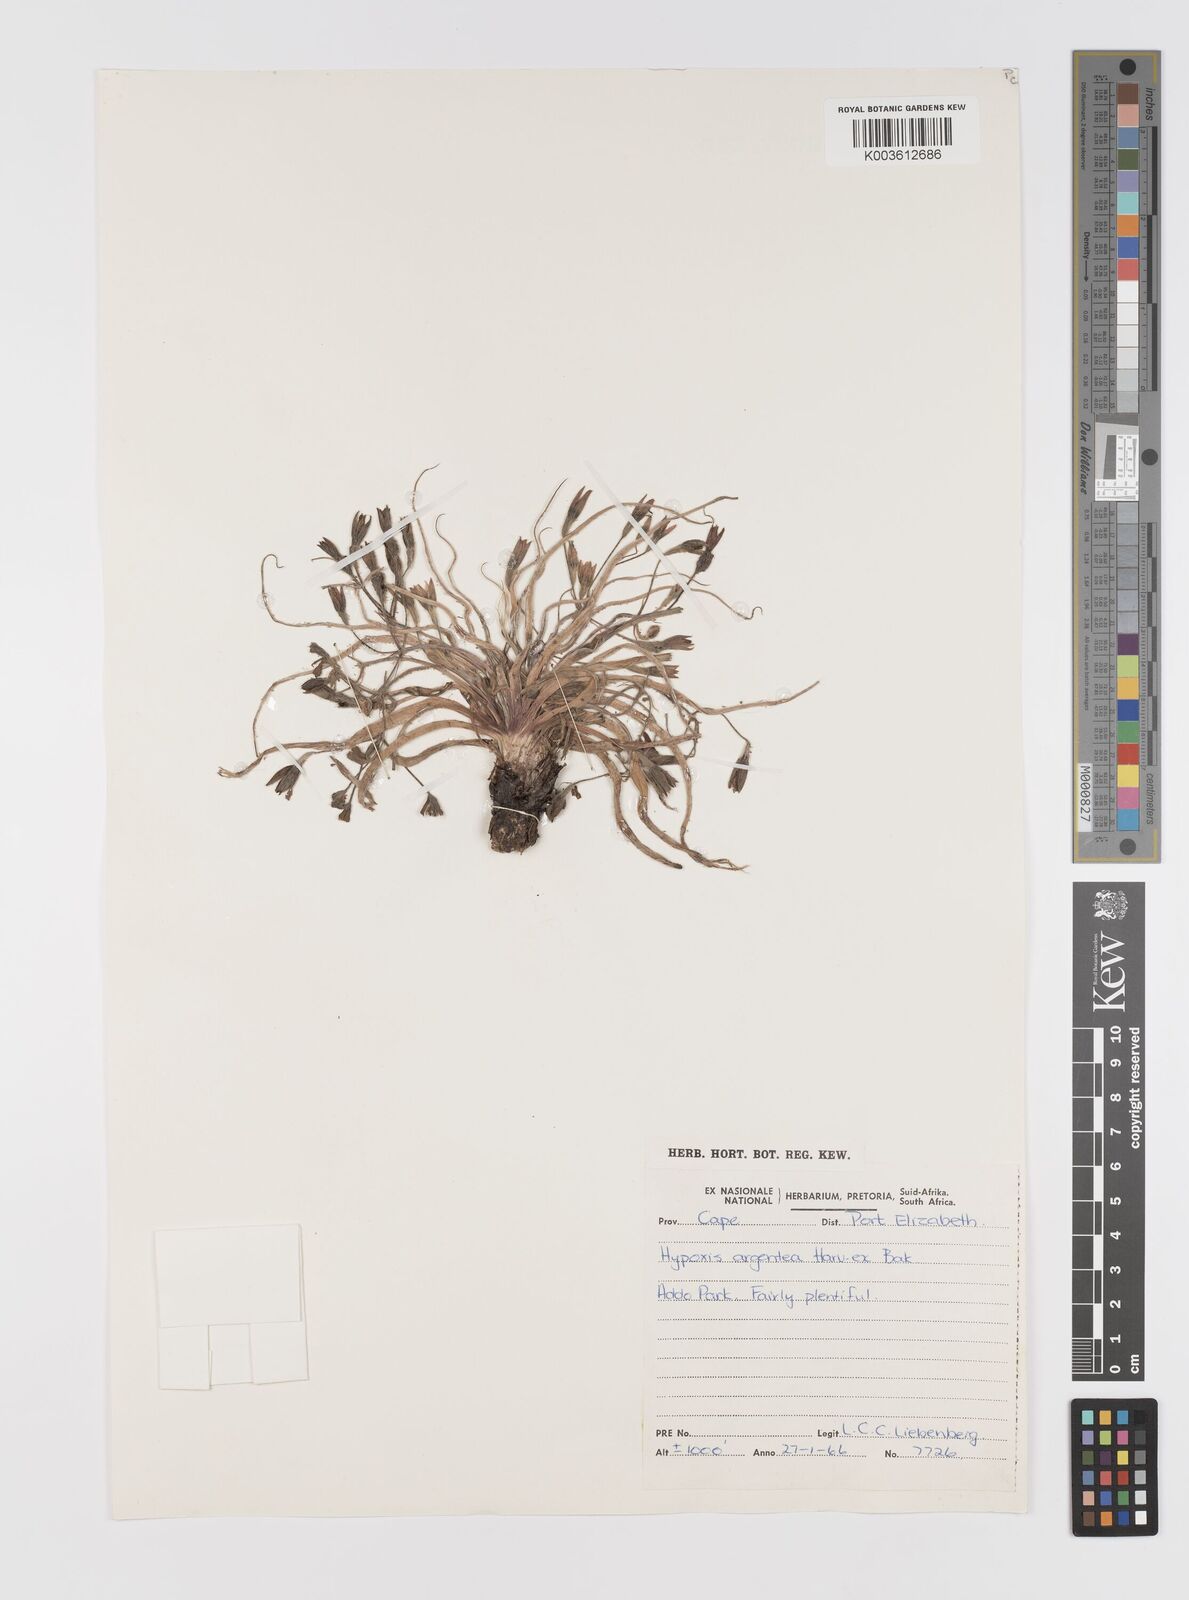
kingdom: Plantae
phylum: Tracheophyta
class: Liliopsida
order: Asparagales
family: Hypoxidaceae
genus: Hypoxis
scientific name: Hypoxis argentea
